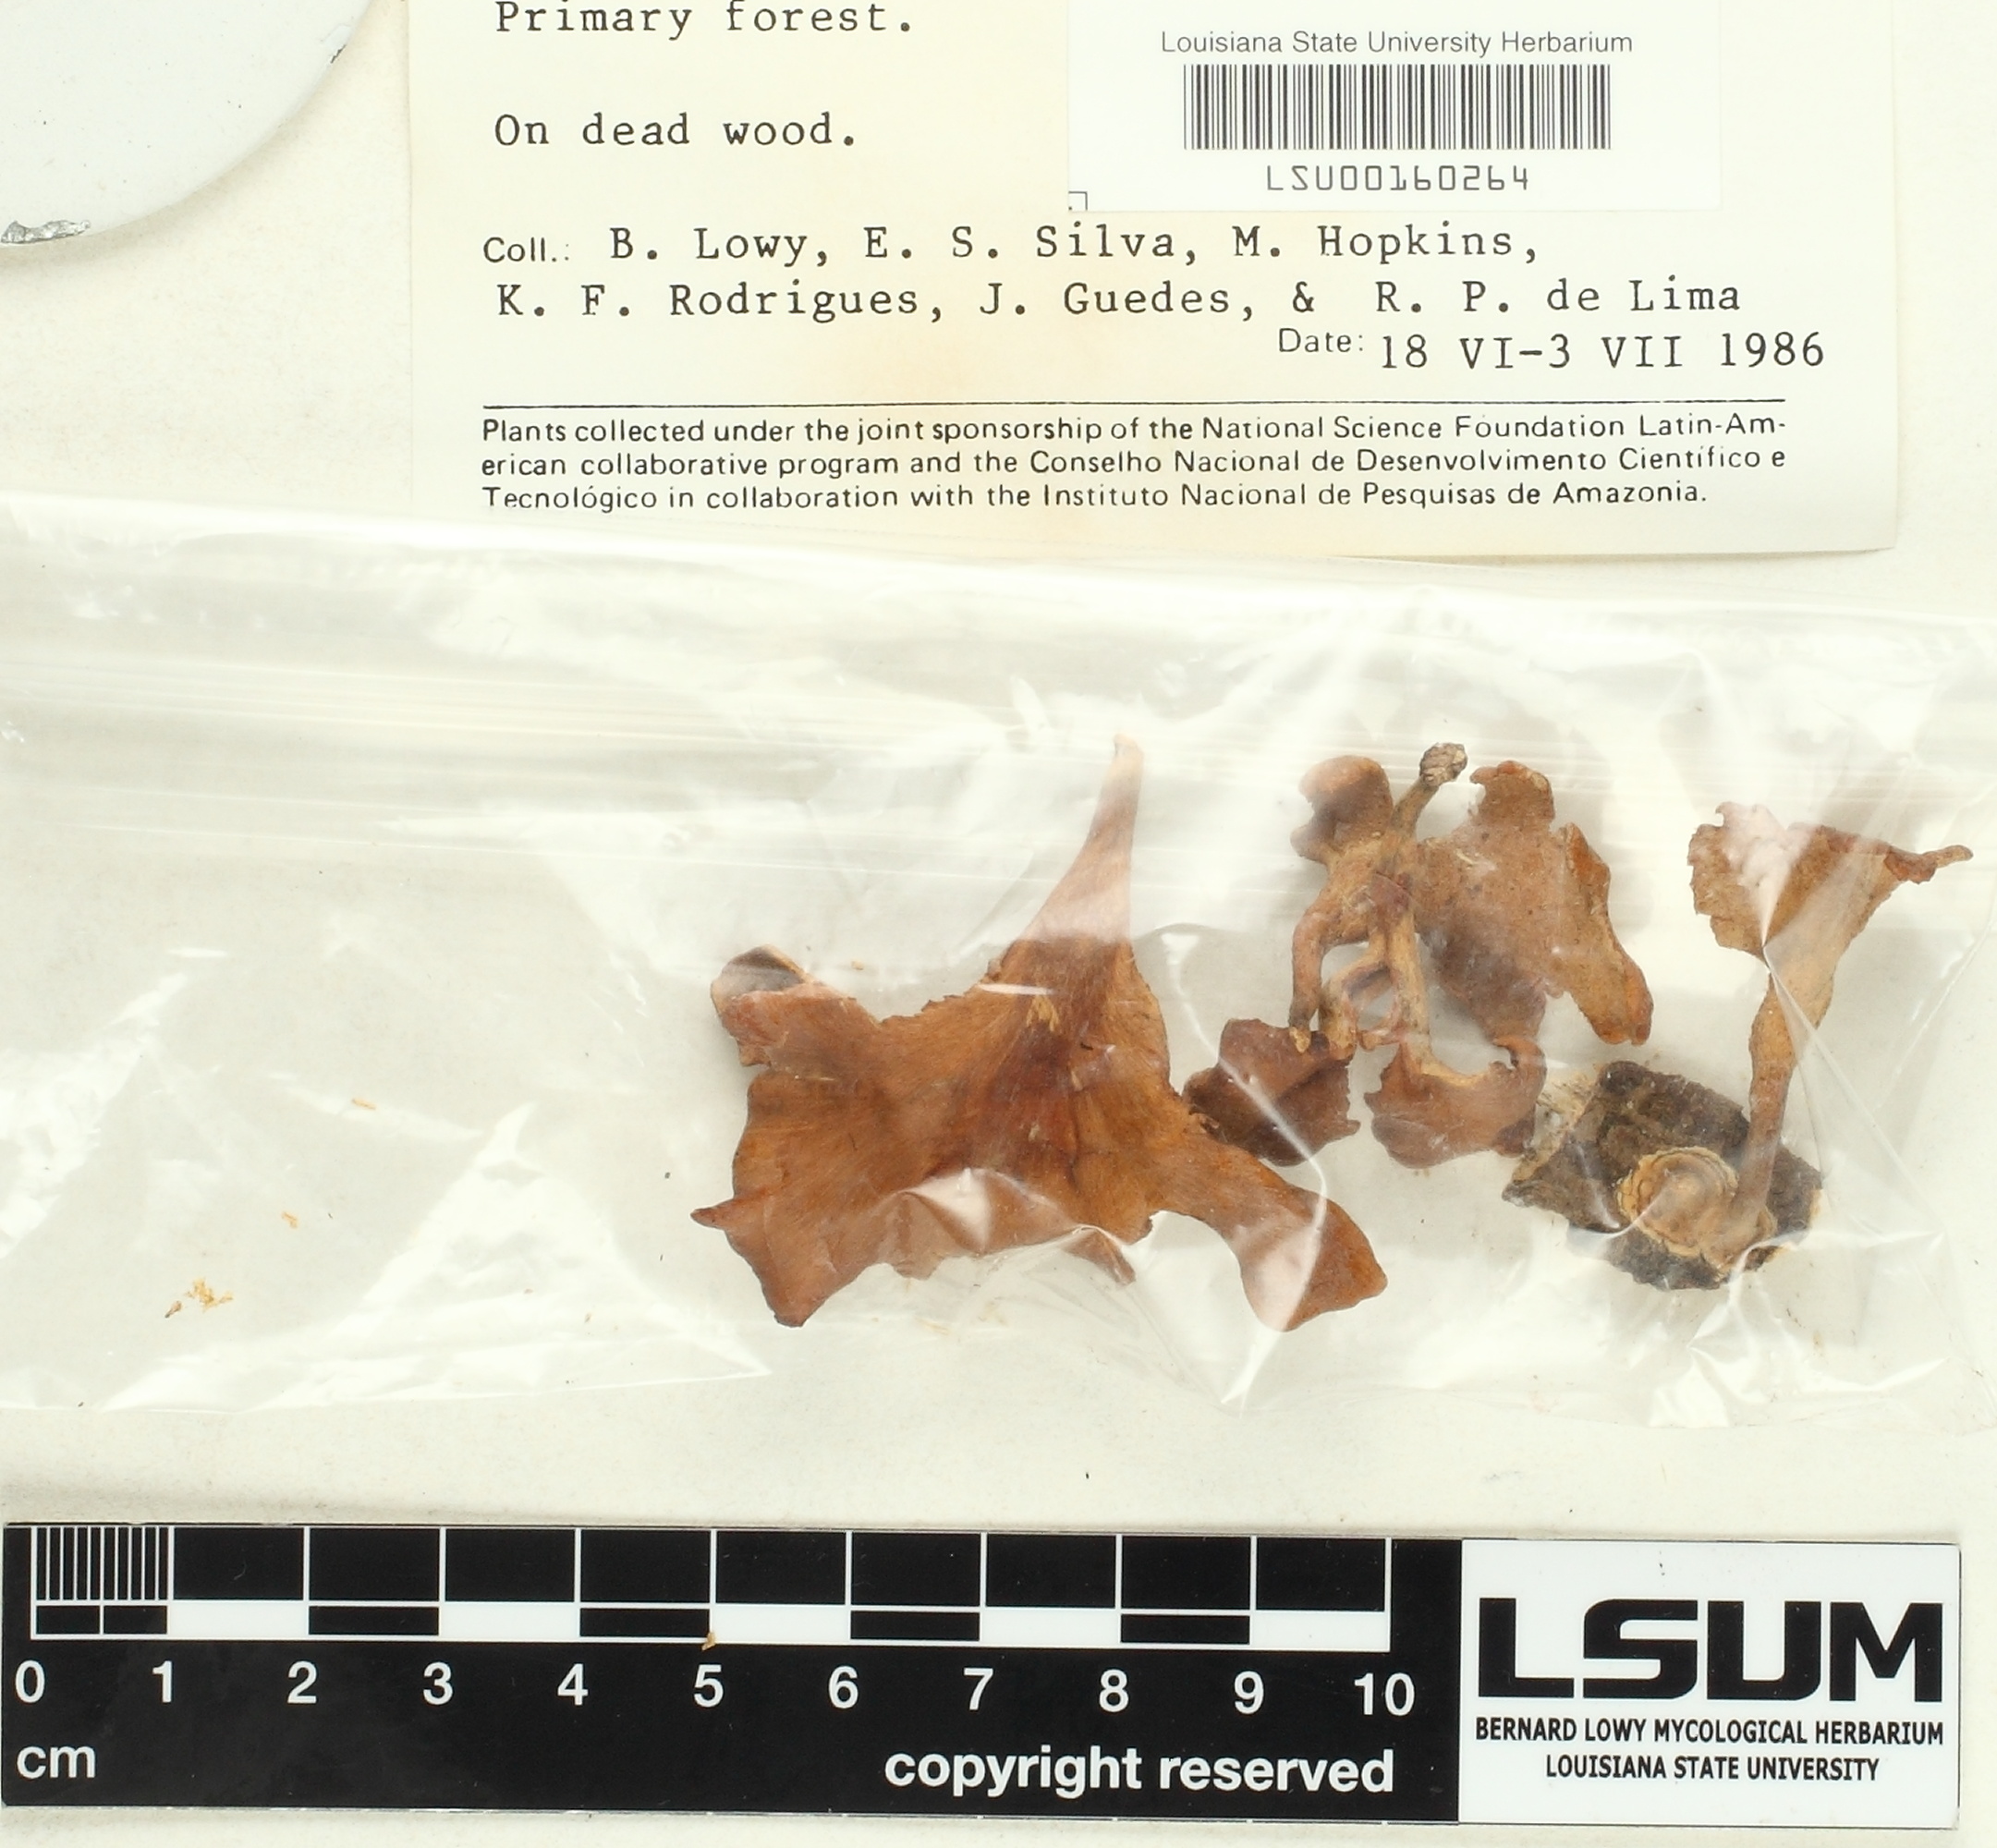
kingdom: Fungi
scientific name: Fungi
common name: Fungi
